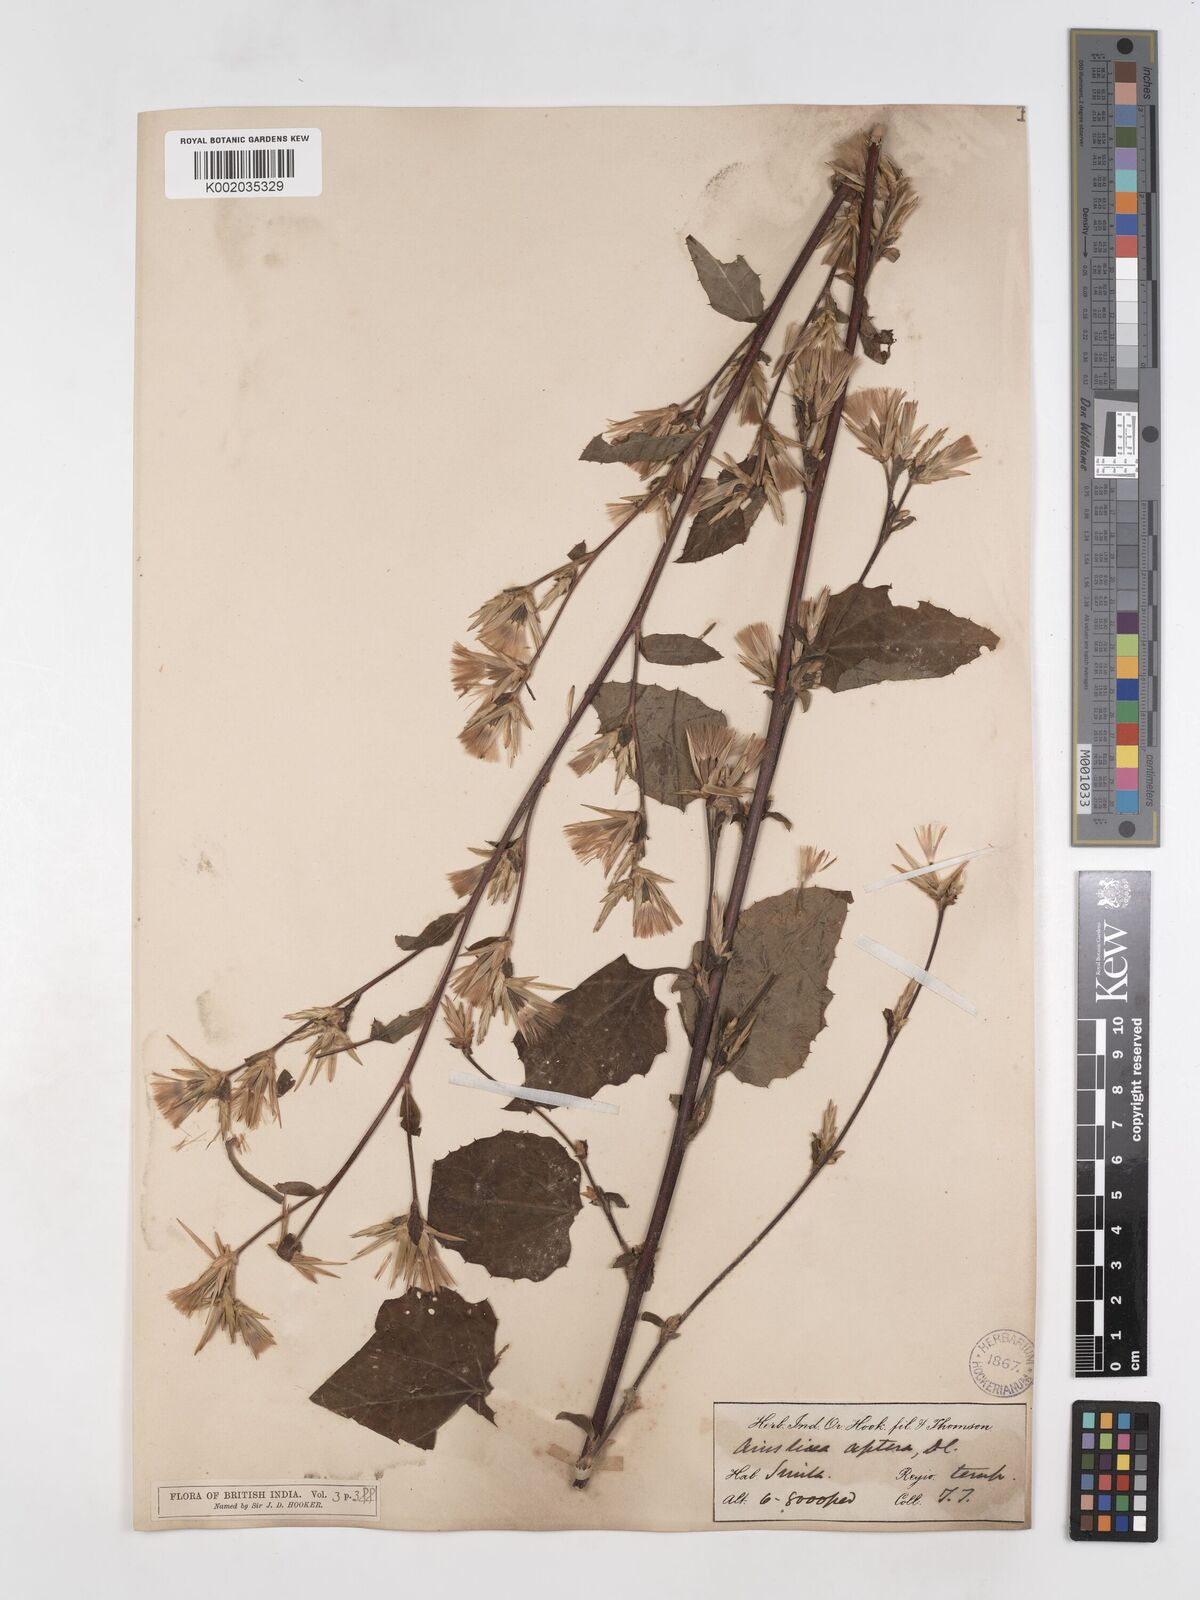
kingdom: Plantae
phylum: Tracheophyta
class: Magnoliopsida
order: Asterales
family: Asteraceae
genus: Ainsliaea
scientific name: Ainsliaea aptera
